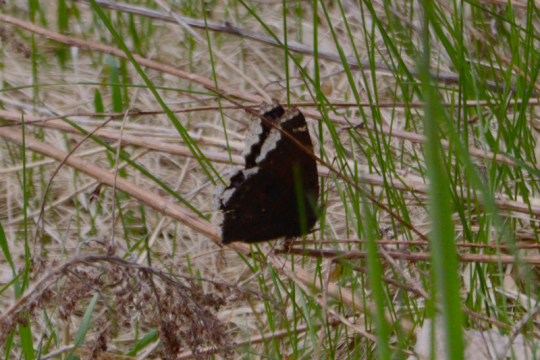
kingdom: Animalia
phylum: Arthropoda
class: Insecta
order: Lepidoptera
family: Nymphalidae
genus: Nymphalis
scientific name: Nymphalis antiopa
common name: Mourning Cloak
